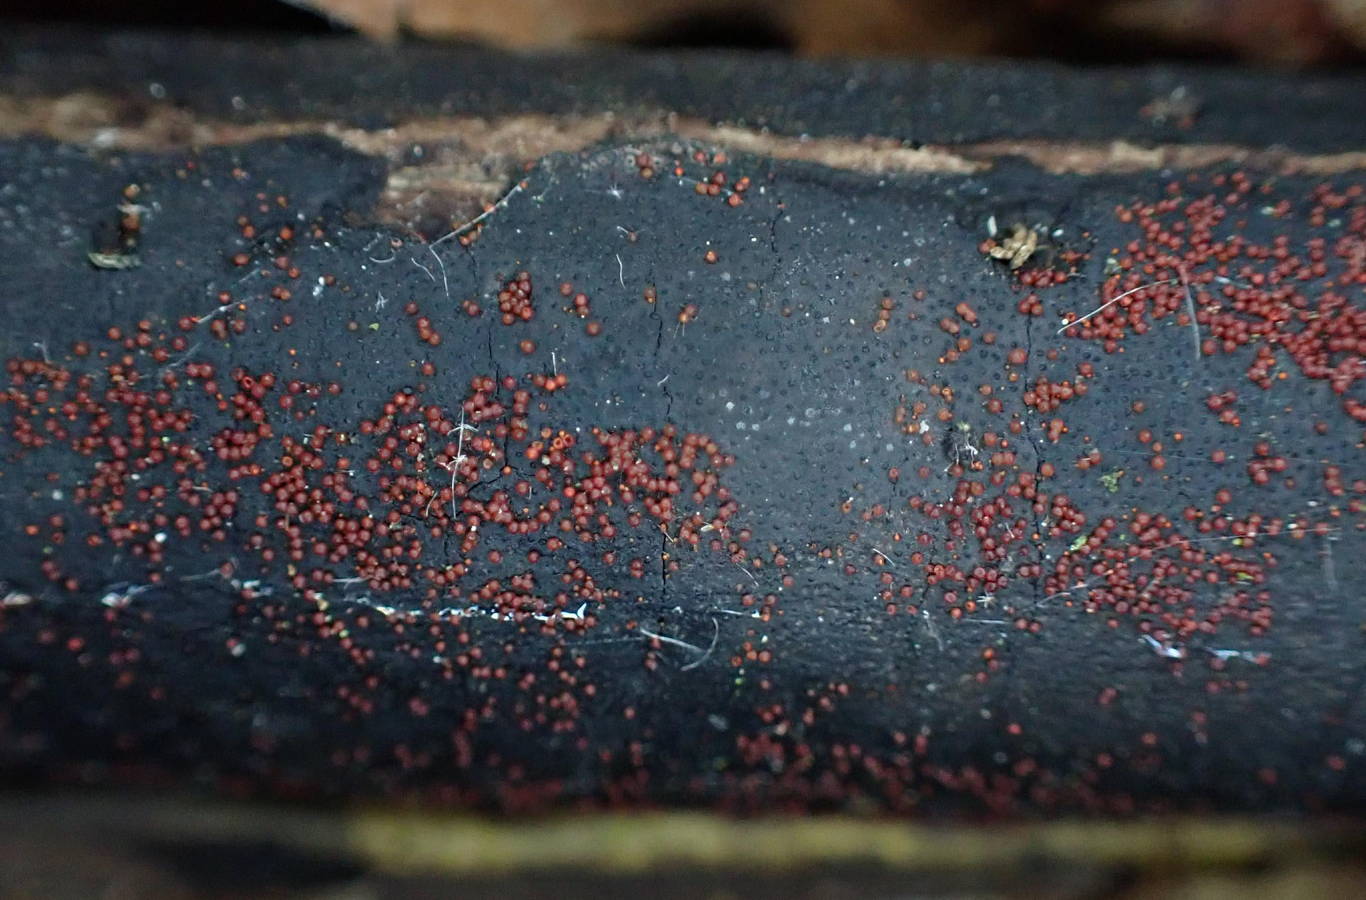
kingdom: Fungi
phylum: Ascomycota
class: Sordariomycetes
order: Hypocreales
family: Nectriaceae
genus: Dialonectria
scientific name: Dialonectria episphaeria
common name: kulskorpe-cinnobersvamp
